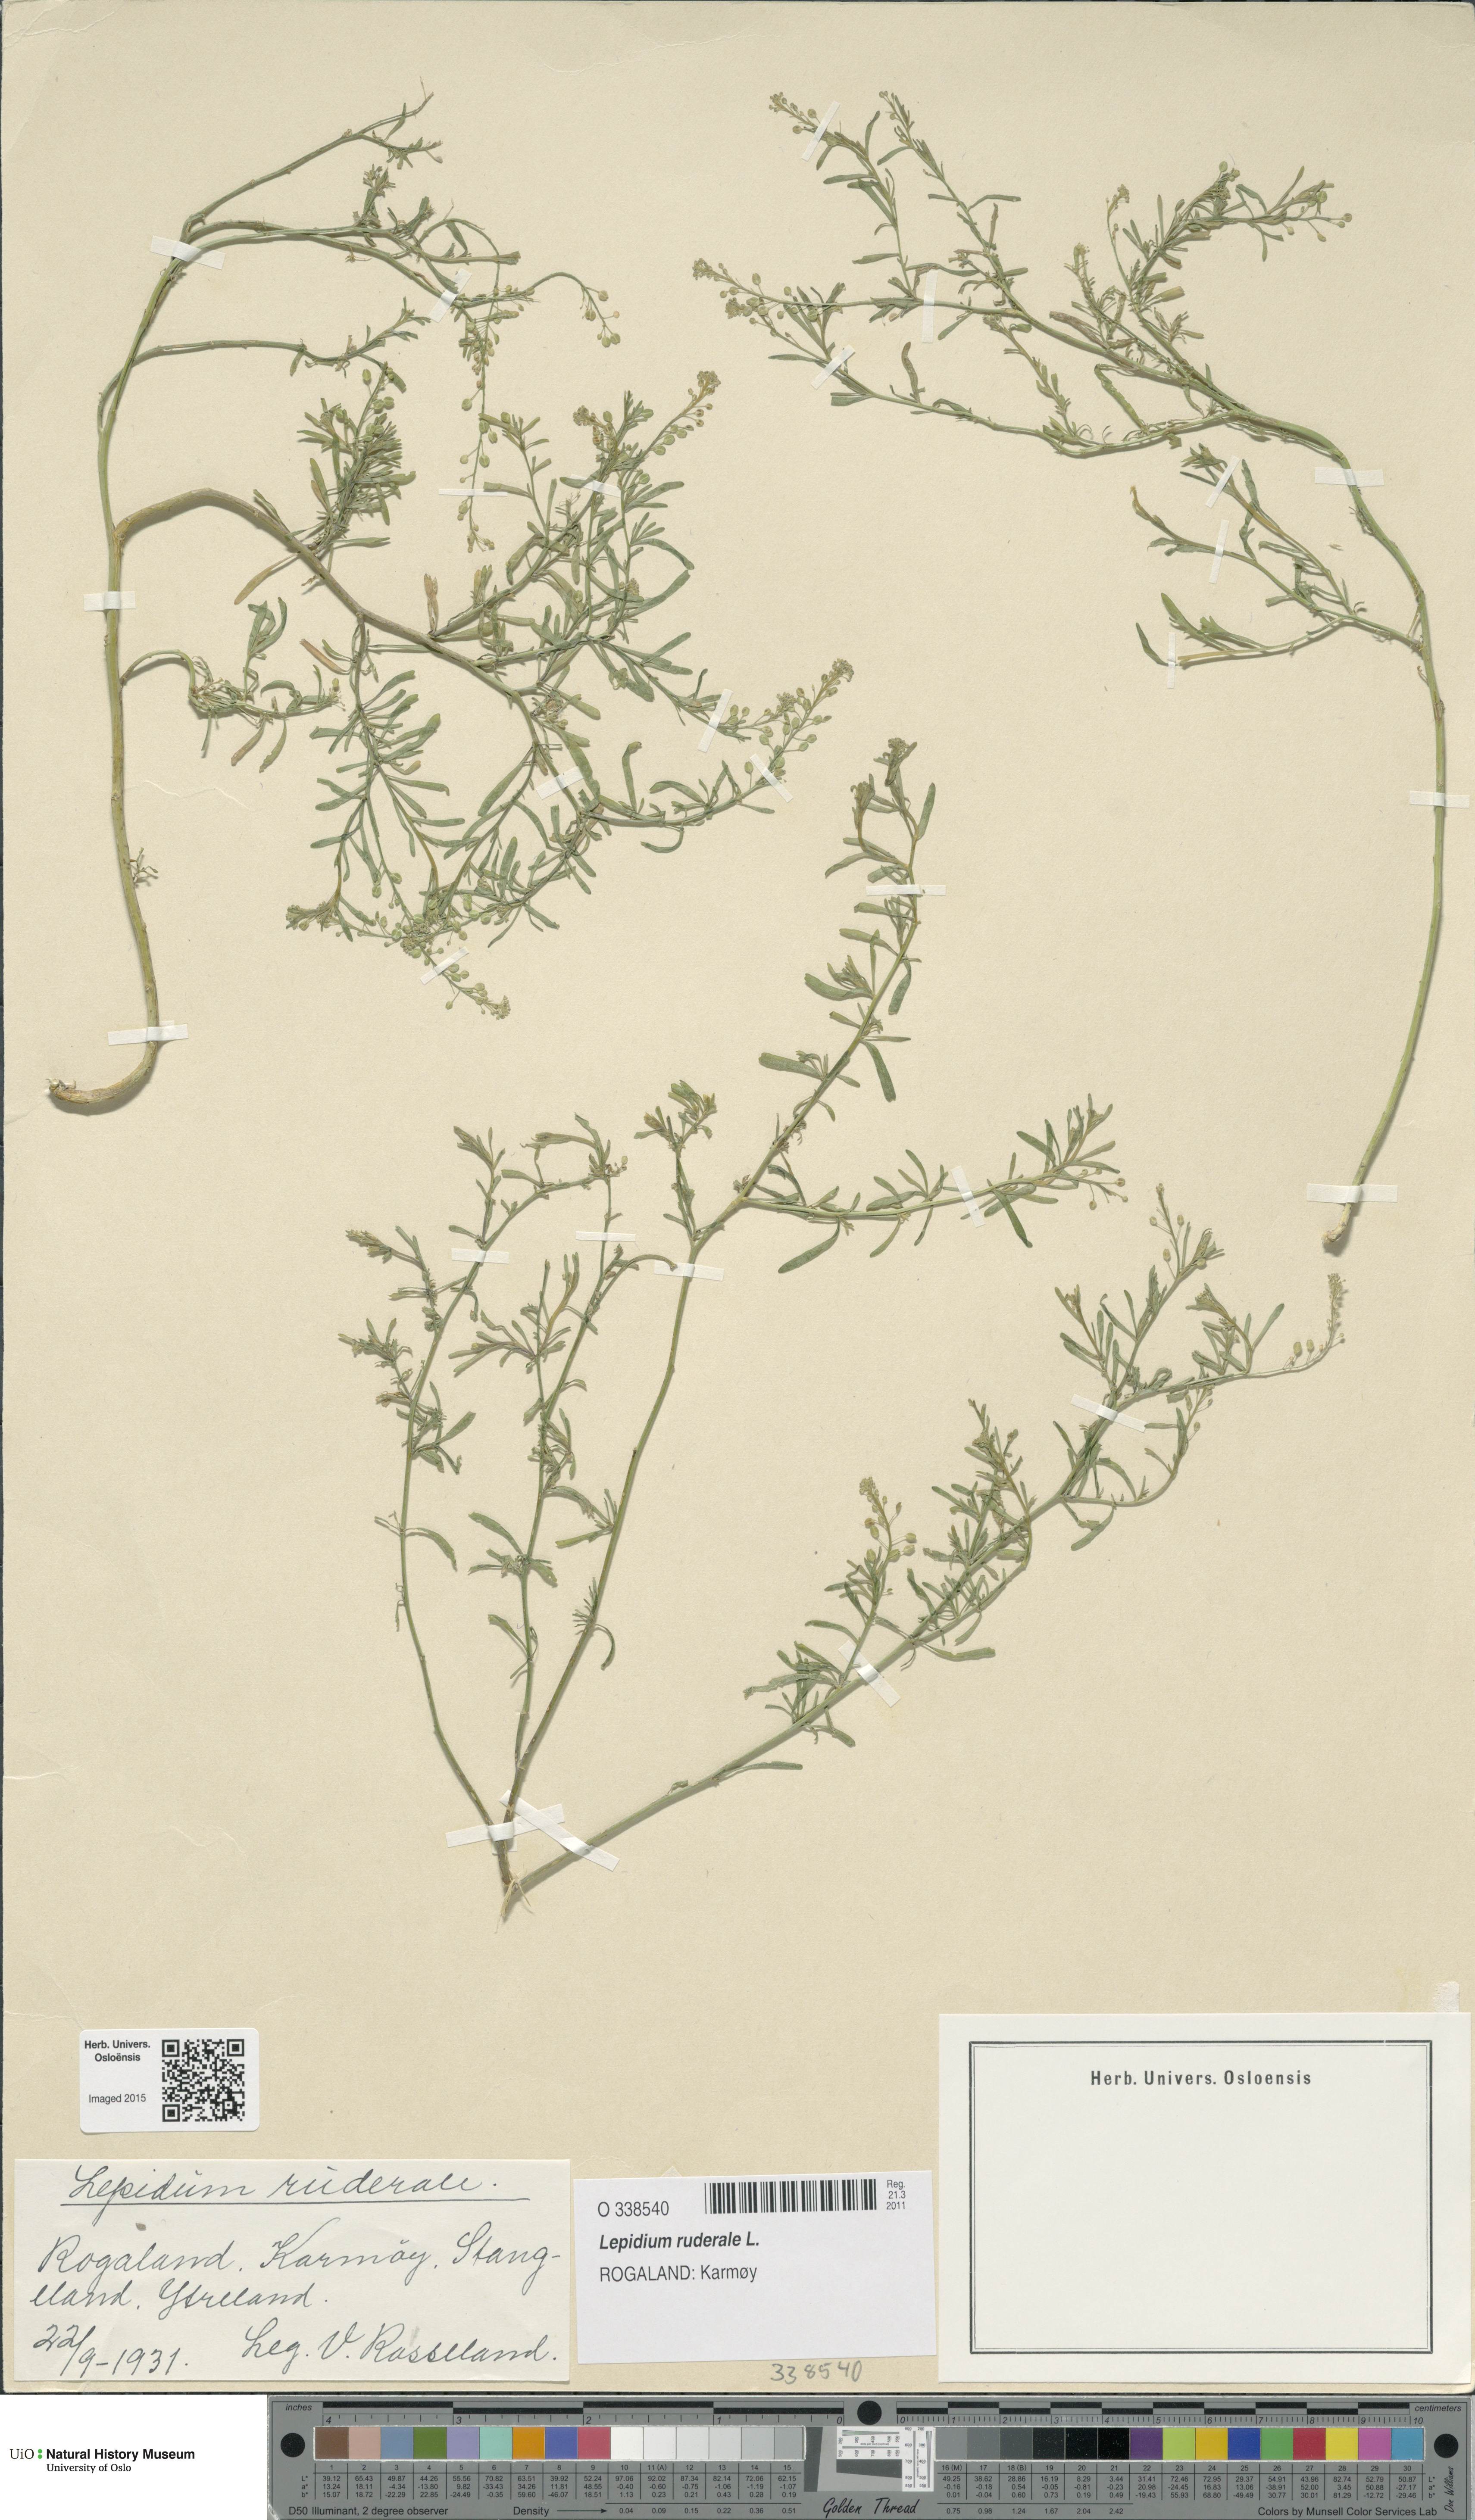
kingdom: Plantae
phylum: Tracheophyta
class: Magnoliopsida
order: Brassicales
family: Brassicaceae
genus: Lepidium
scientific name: Lepidium ruderale
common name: Narrow-leaved pepperwort
